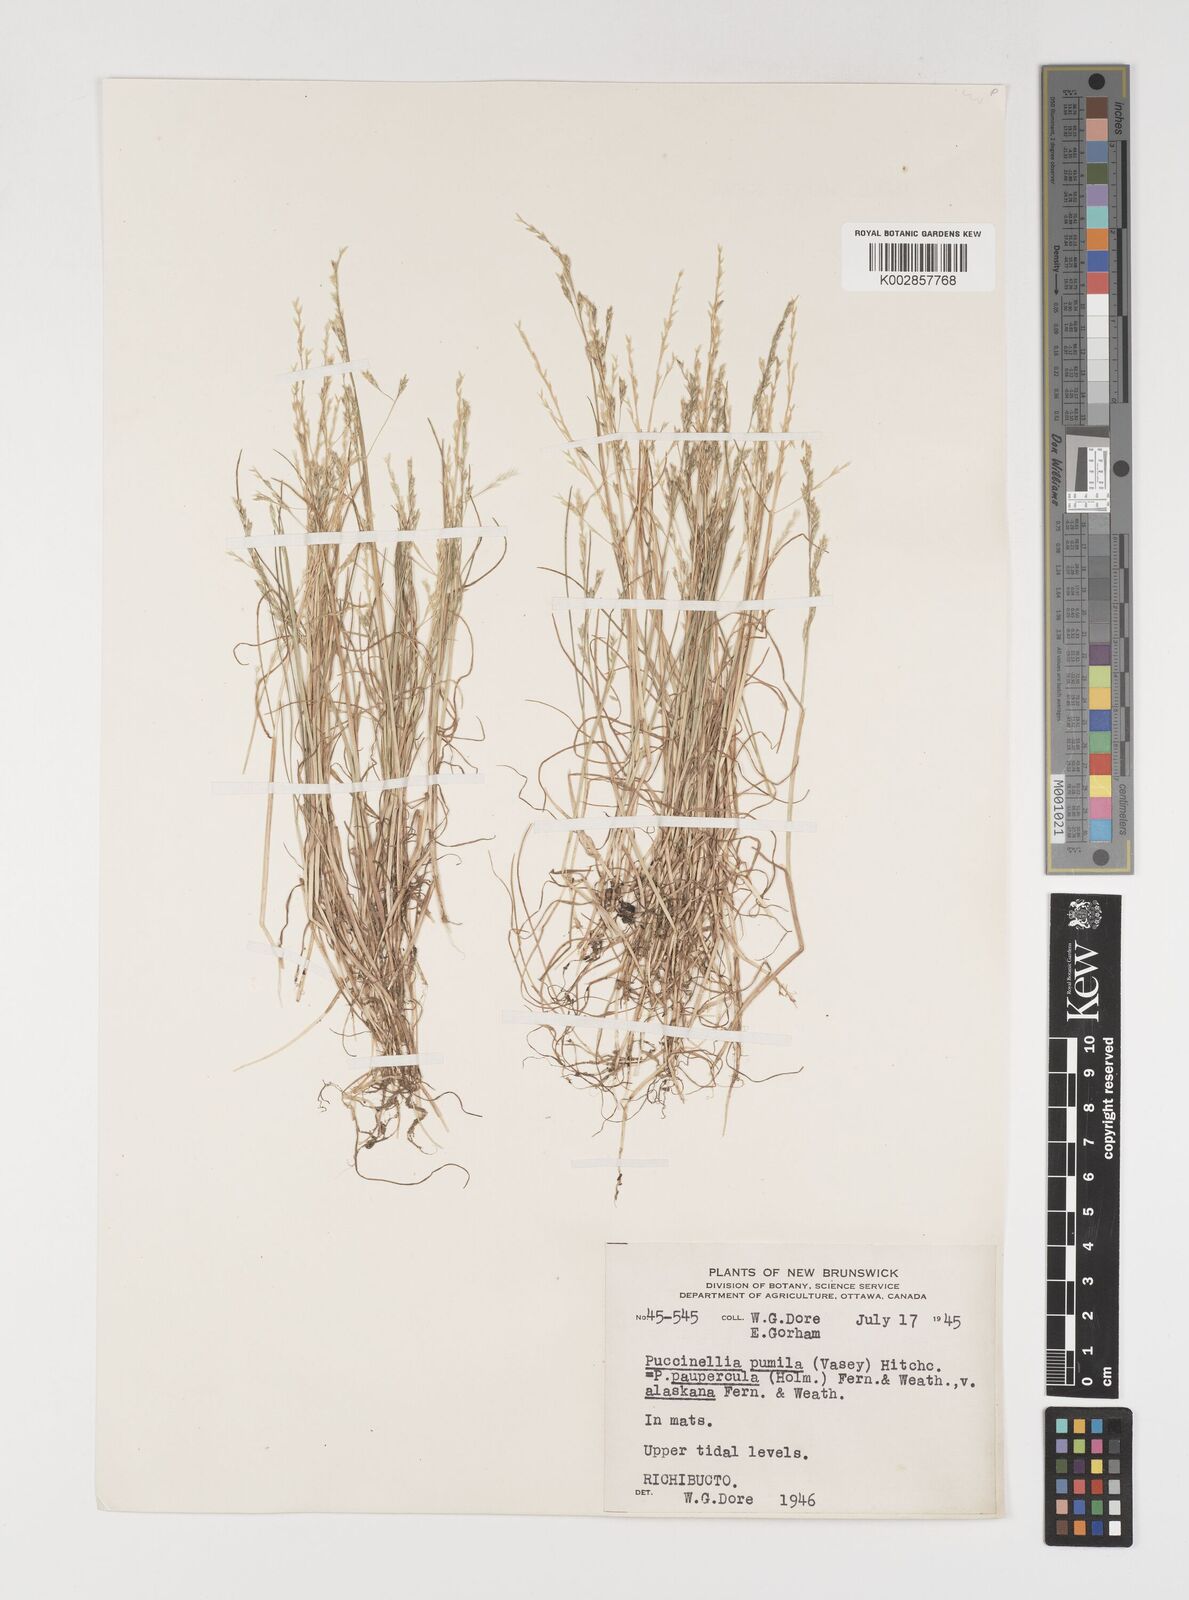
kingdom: Plantae
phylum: Tracheophyta
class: Liliopsida
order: Poales
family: Poaceae
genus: Puccinellia
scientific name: Puccinellia pumila
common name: Dwarf alkaligrass
